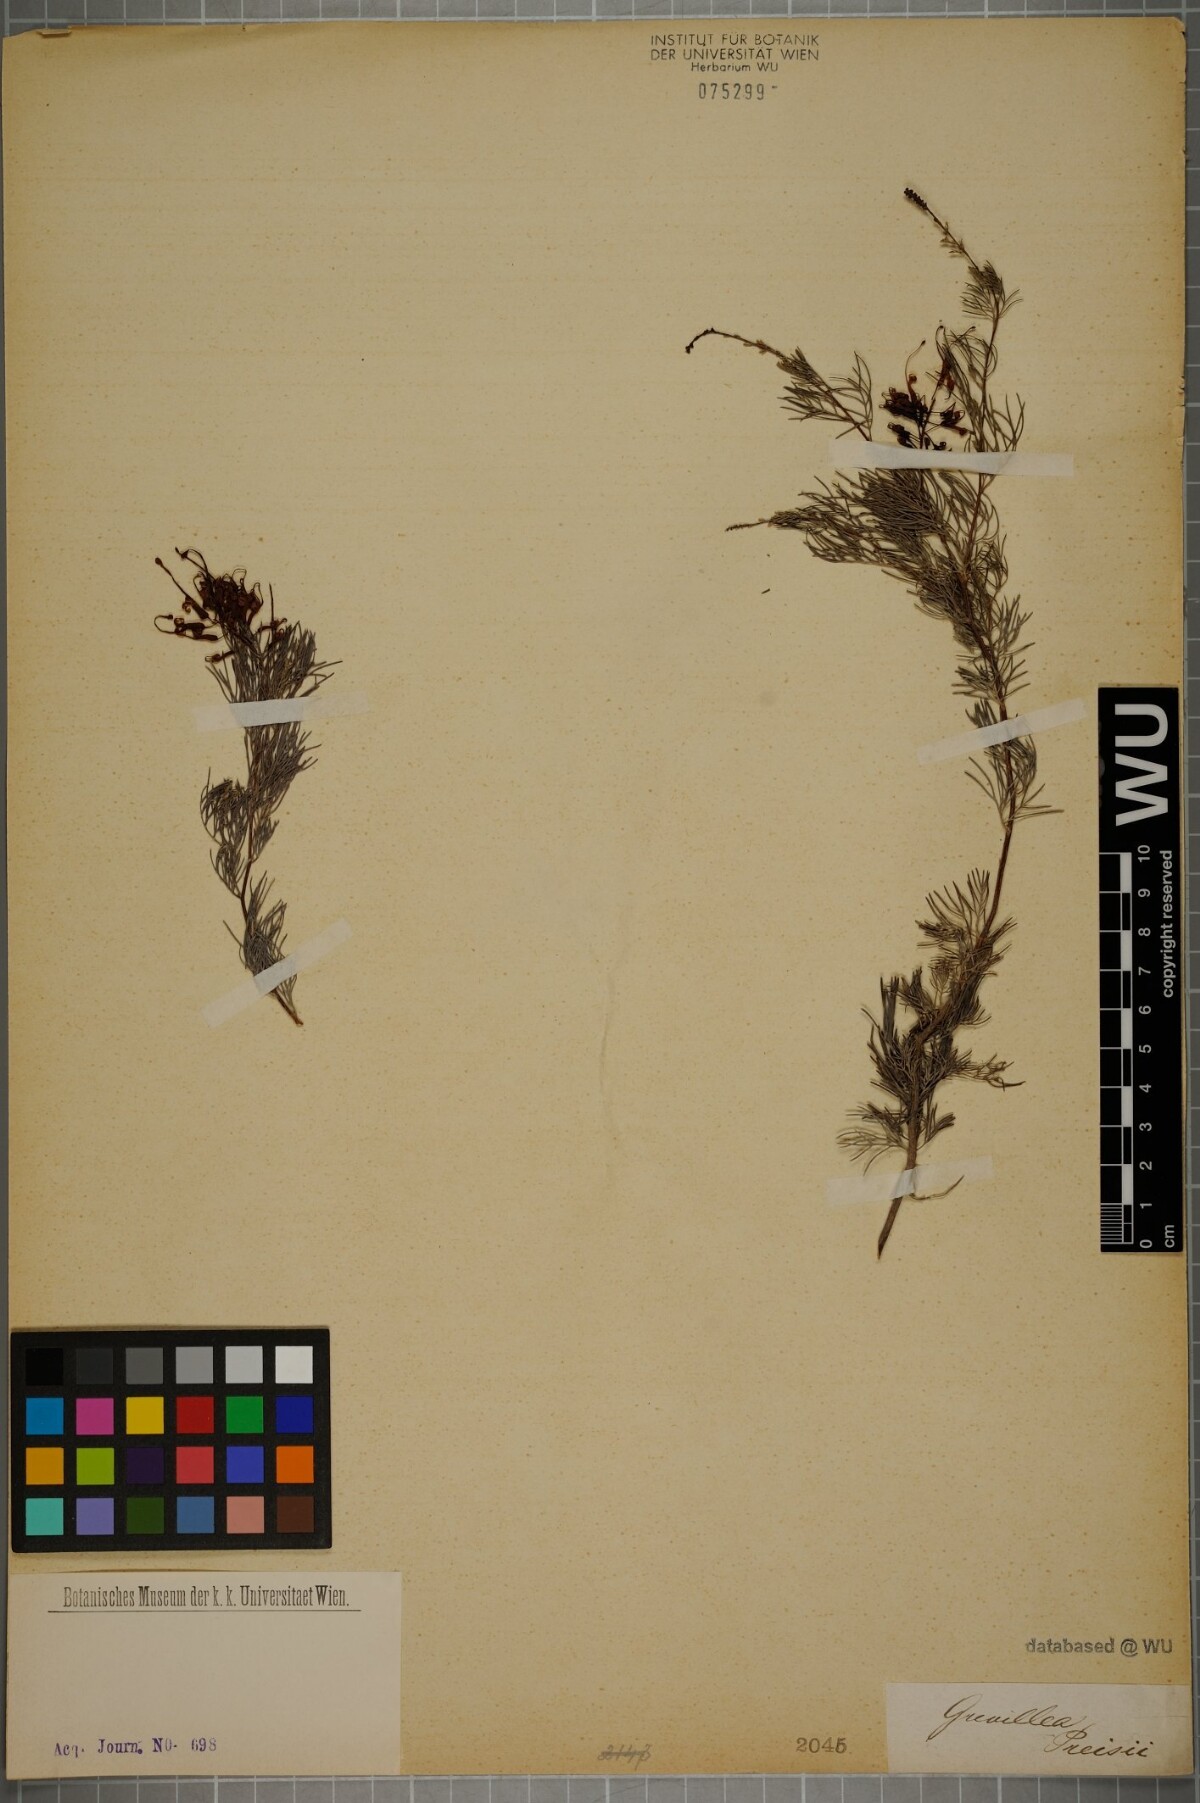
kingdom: Plantae
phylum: Tracheophyta
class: Magnoliopsida
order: Proteales
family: Proteaceae
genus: Grevillea
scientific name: Grevillea thelemanniana
